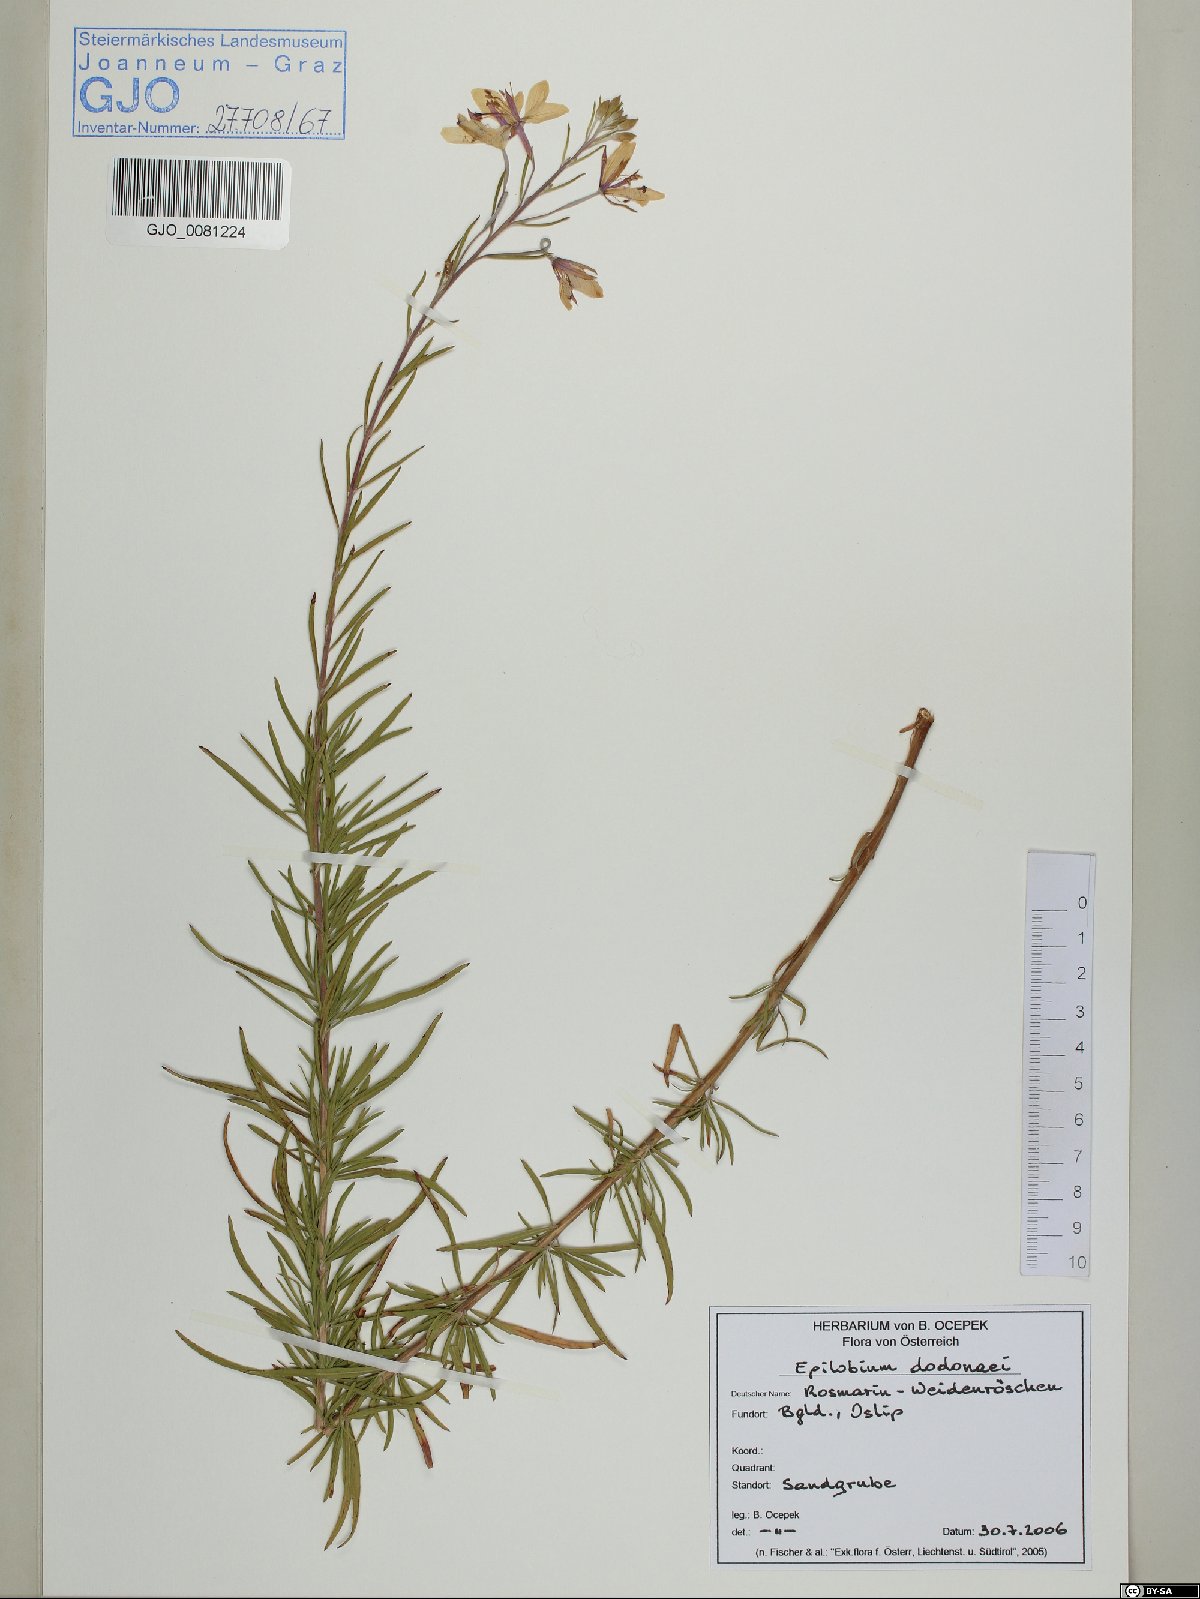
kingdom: Plantae
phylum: Tracheophyta
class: Magnoliopsida
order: Myrtales
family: Onagraceae
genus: Chamaenerion
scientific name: Chamaenerion dodonaei
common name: Rosemary-leaved willowherb
